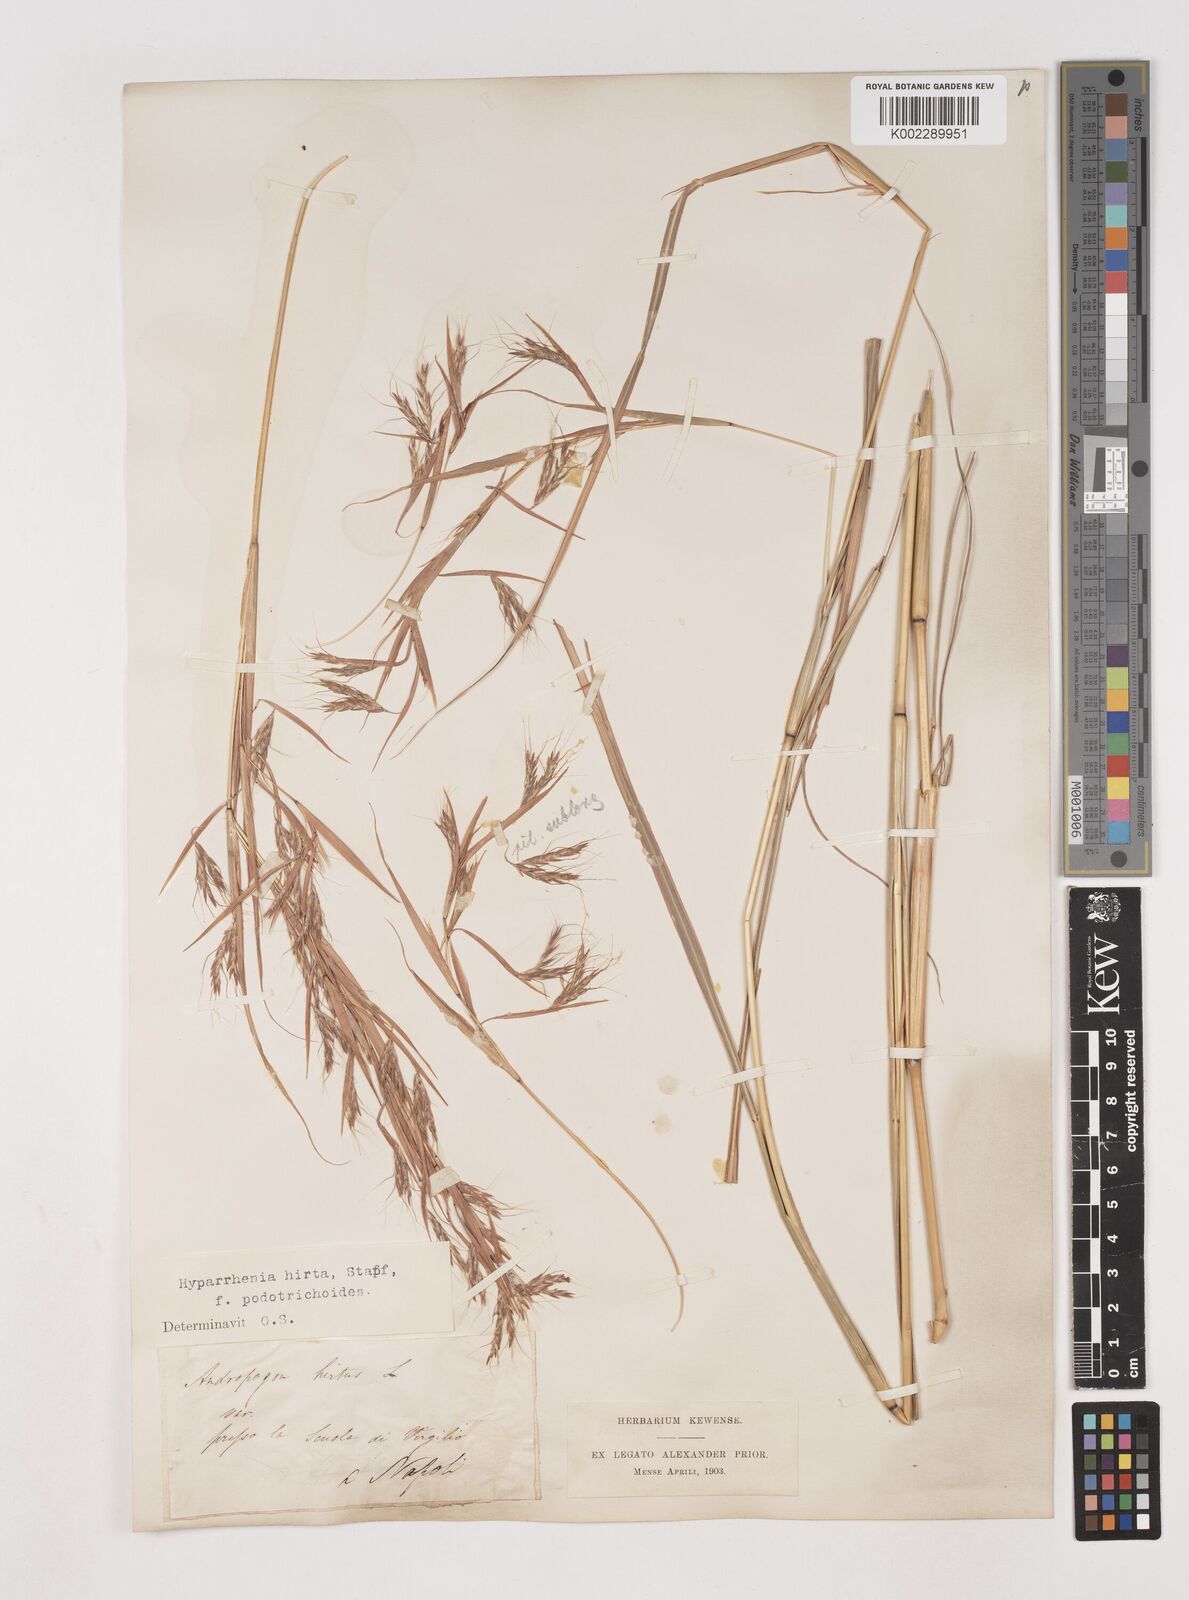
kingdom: Plantae
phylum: Tracheophyta
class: Liliopsida
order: Poales
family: Poaceae
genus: Hyparrhenia
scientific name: Hyparrhenia hirta
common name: Thatching grass
